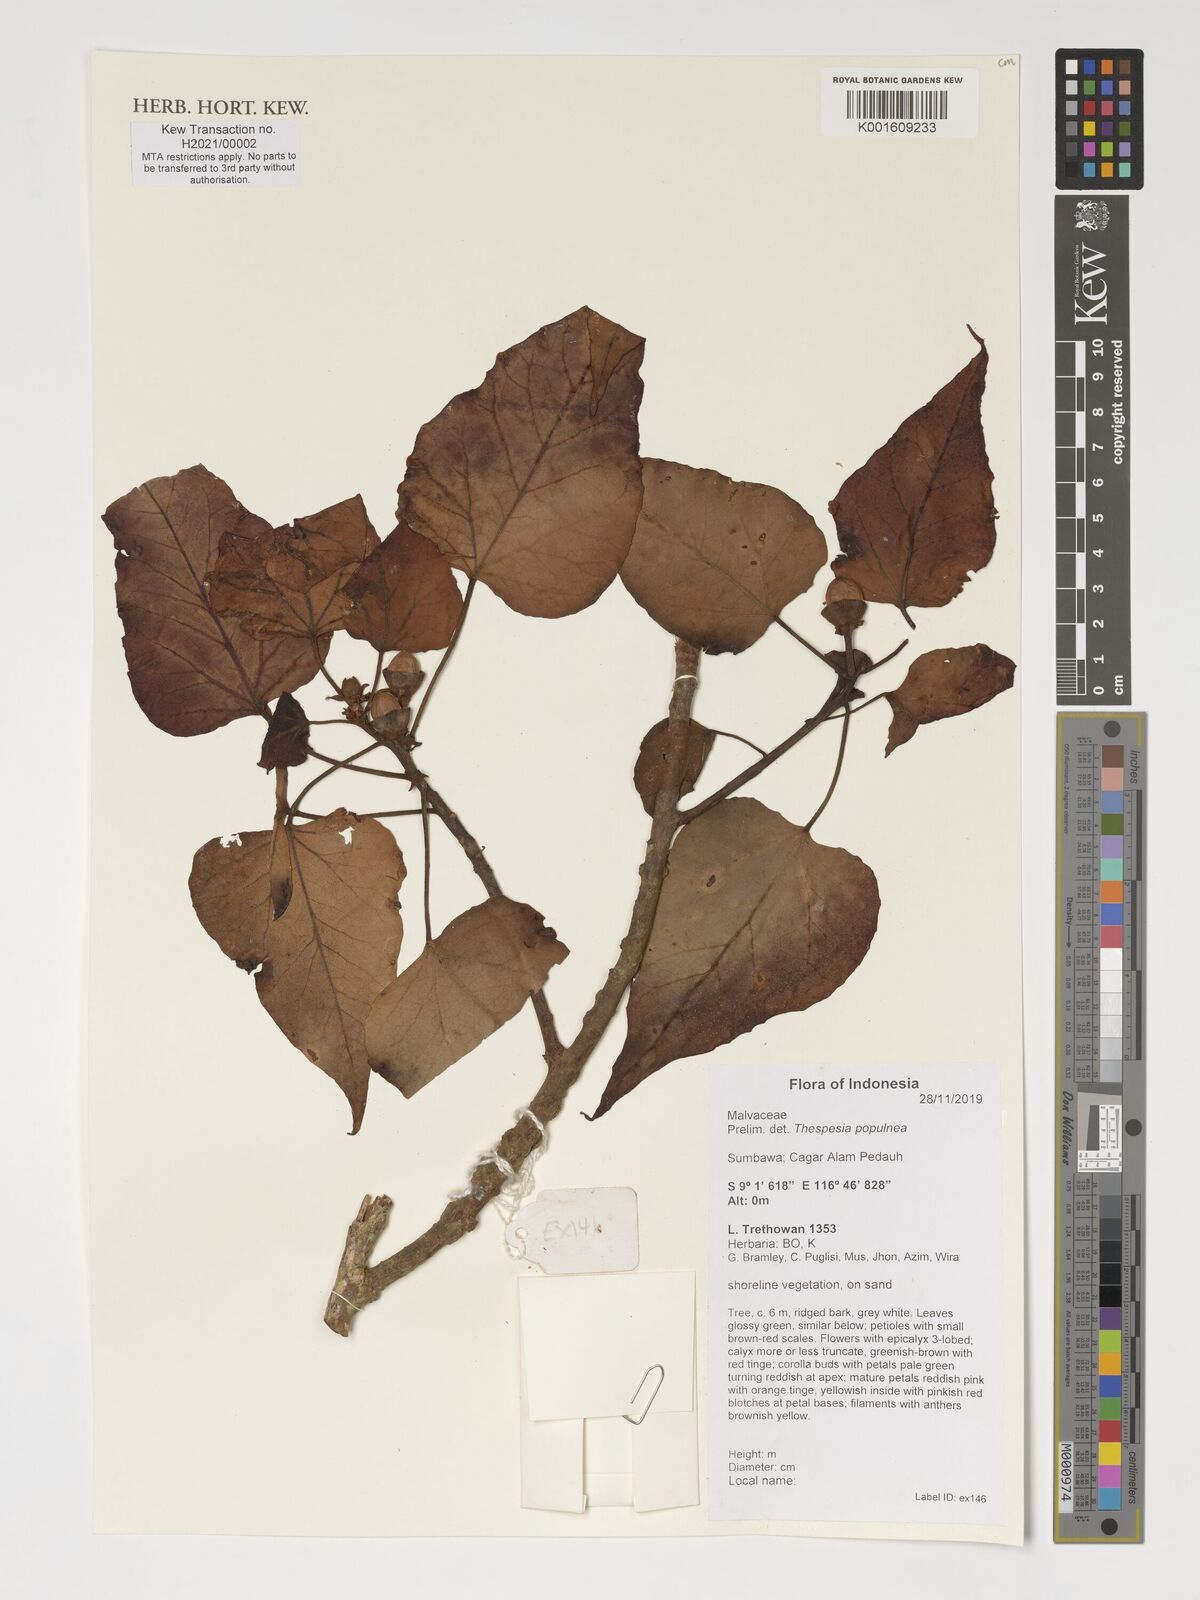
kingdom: Plantae
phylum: Tracheophyta
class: Magnoliopsida
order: Malvales
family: Malvaceae
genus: Thespesia
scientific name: Thespesia populnea
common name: Seaside mahoe
